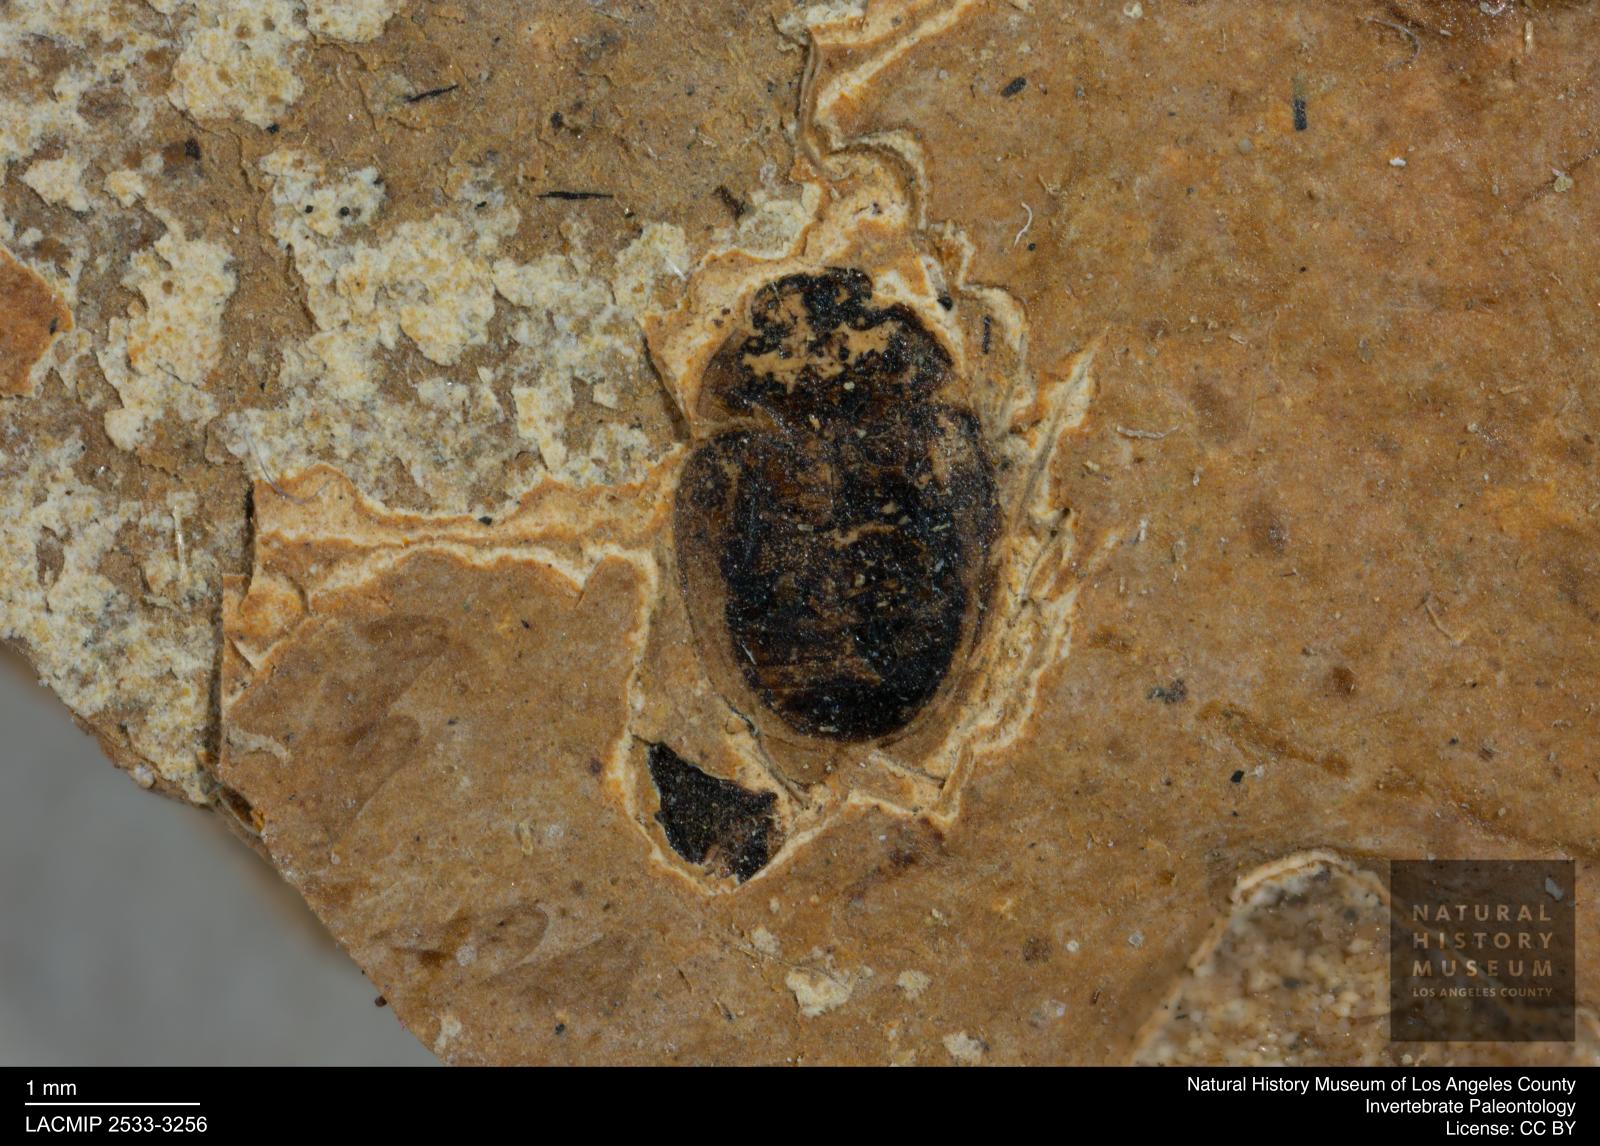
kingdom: Animalia
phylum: Arthropoda
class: Insecta
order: Coleoptera
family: Hydrophilidae
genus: Paracymus
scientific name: Paracymus excitatus
